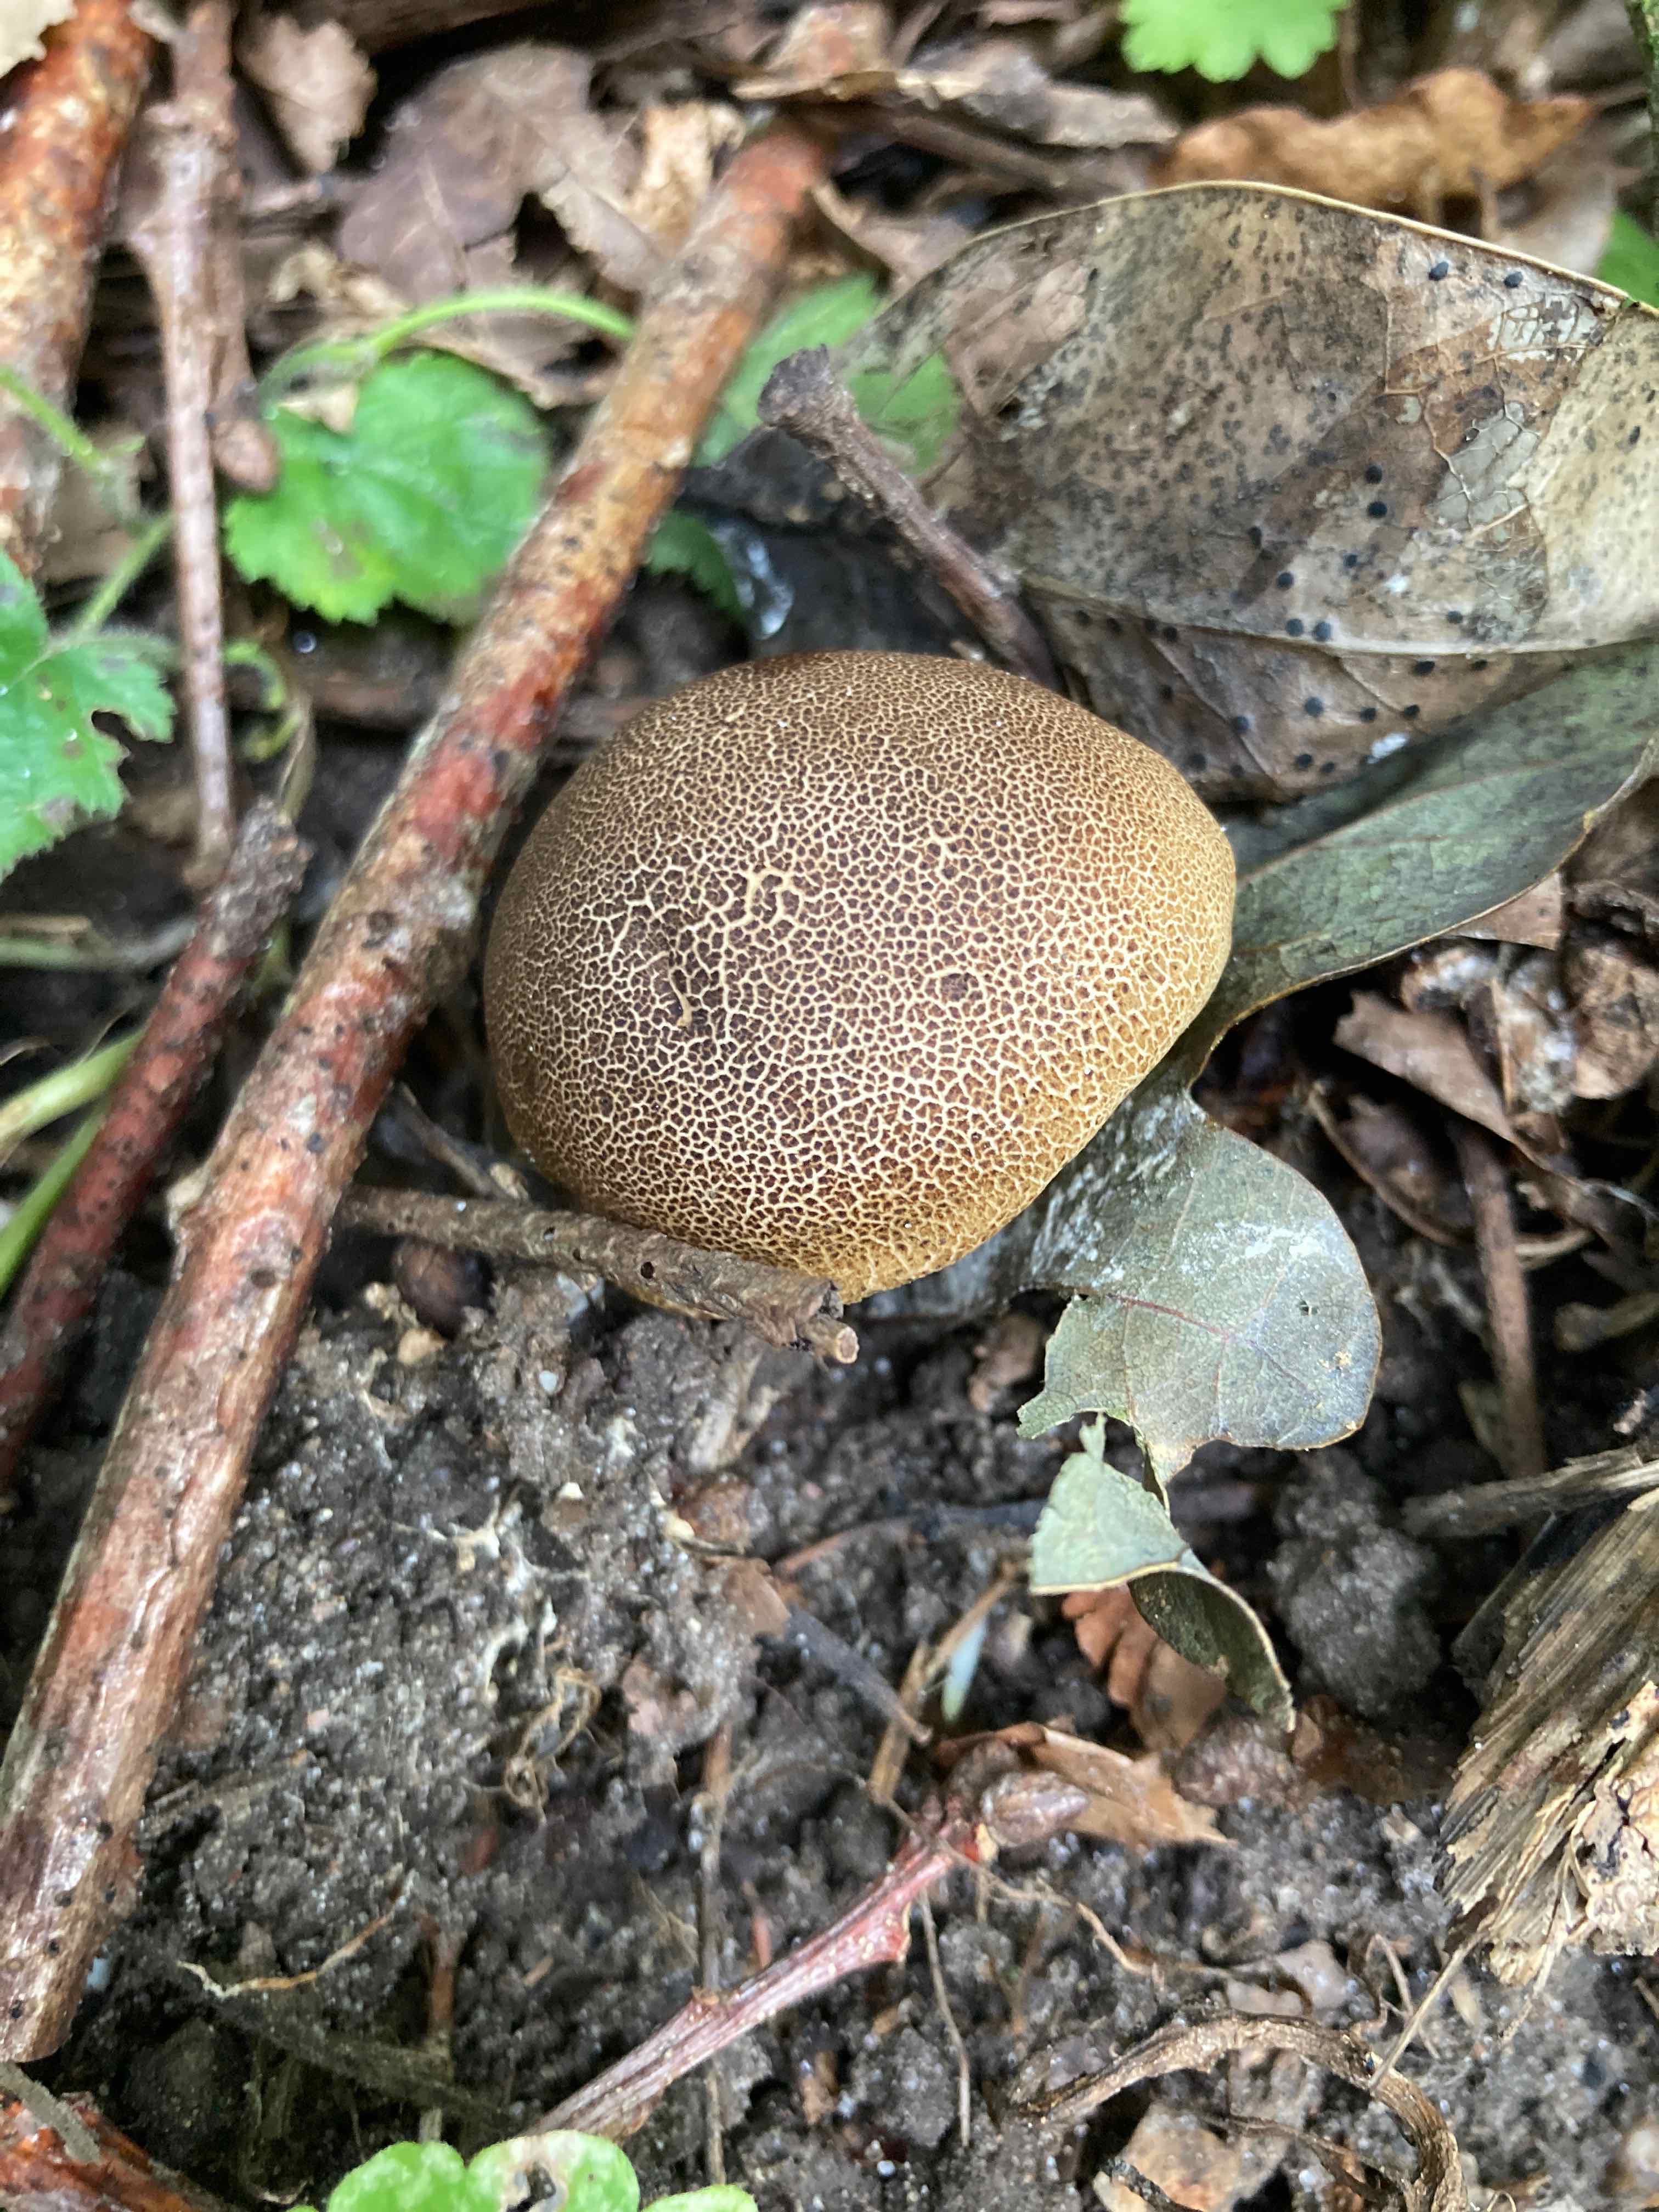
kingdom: Fungi
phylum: Basidiomycota
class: Agaricomycetes
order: Boletales
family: Sclerodermataceae
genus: Scleroderma
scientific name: Scleroderma areolatum
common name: plettet bruskbold
